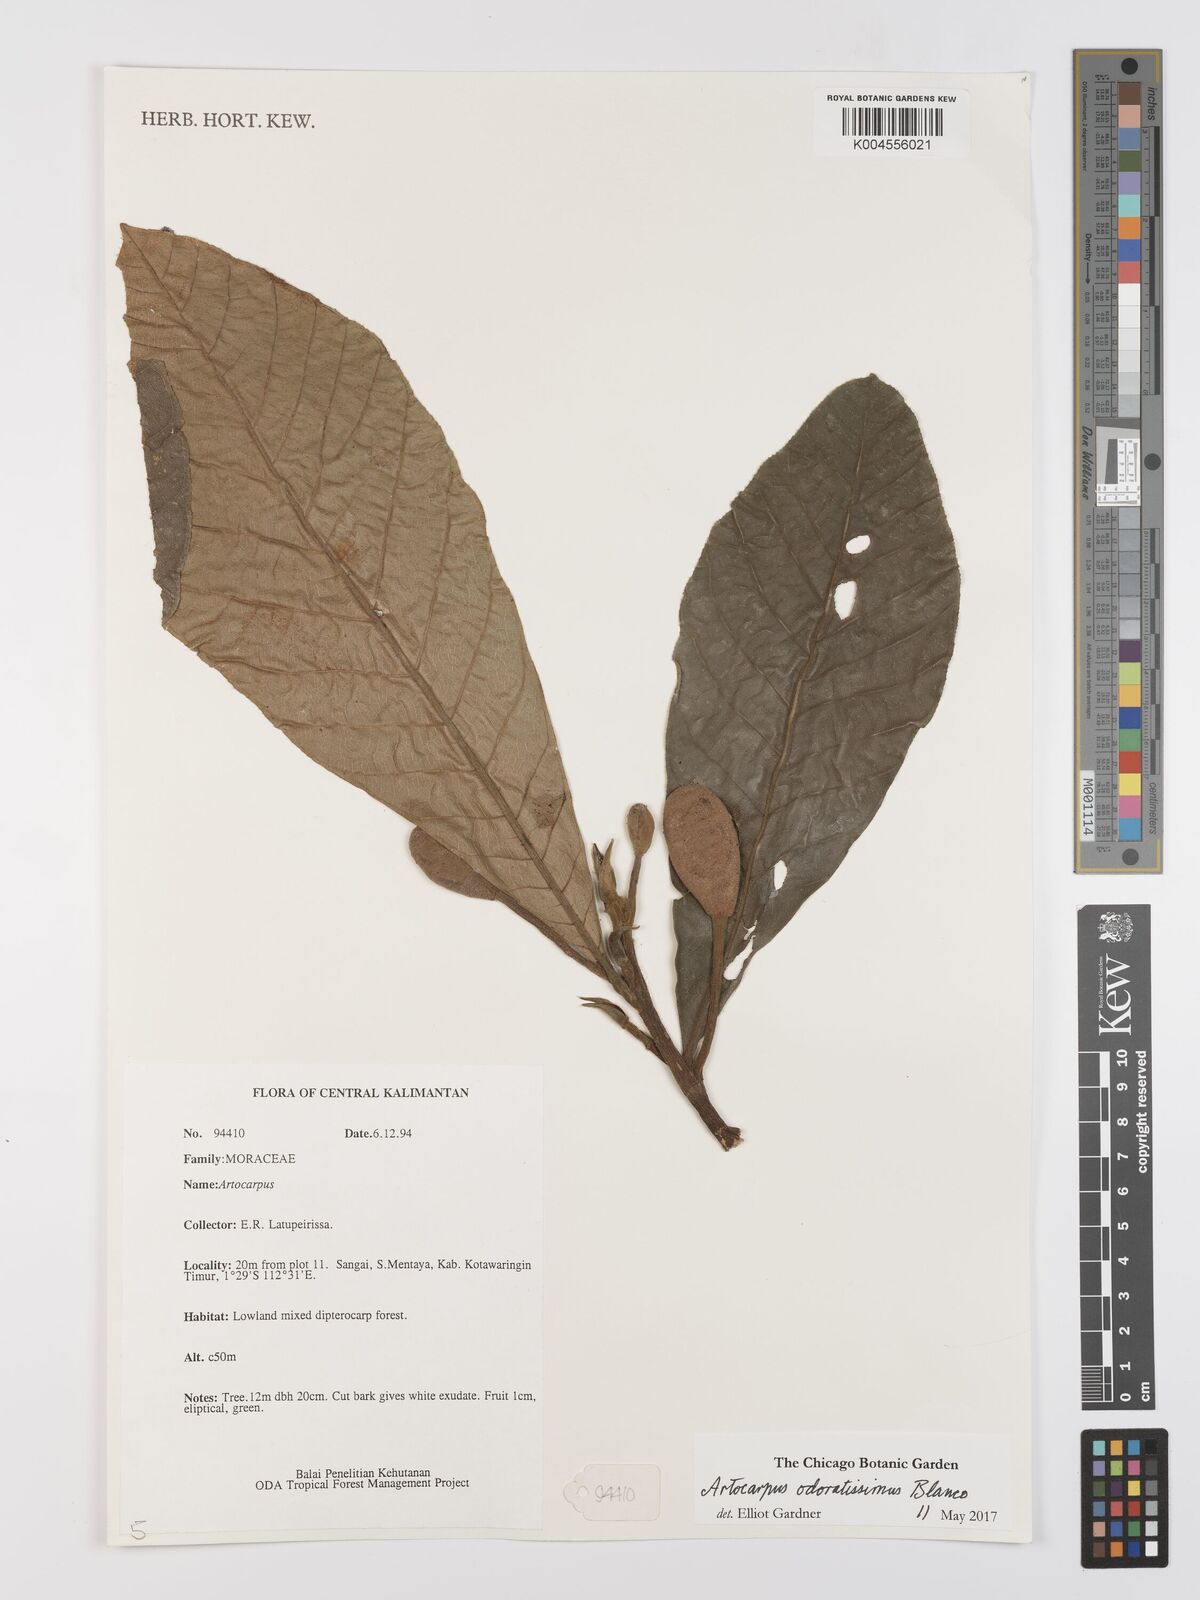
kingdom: Plantae
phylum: Tracheophyta
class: Magnoliopsida
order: Rosales
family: Moraceae
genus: Artocarpus
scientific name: Artocarpus odoratissimus
